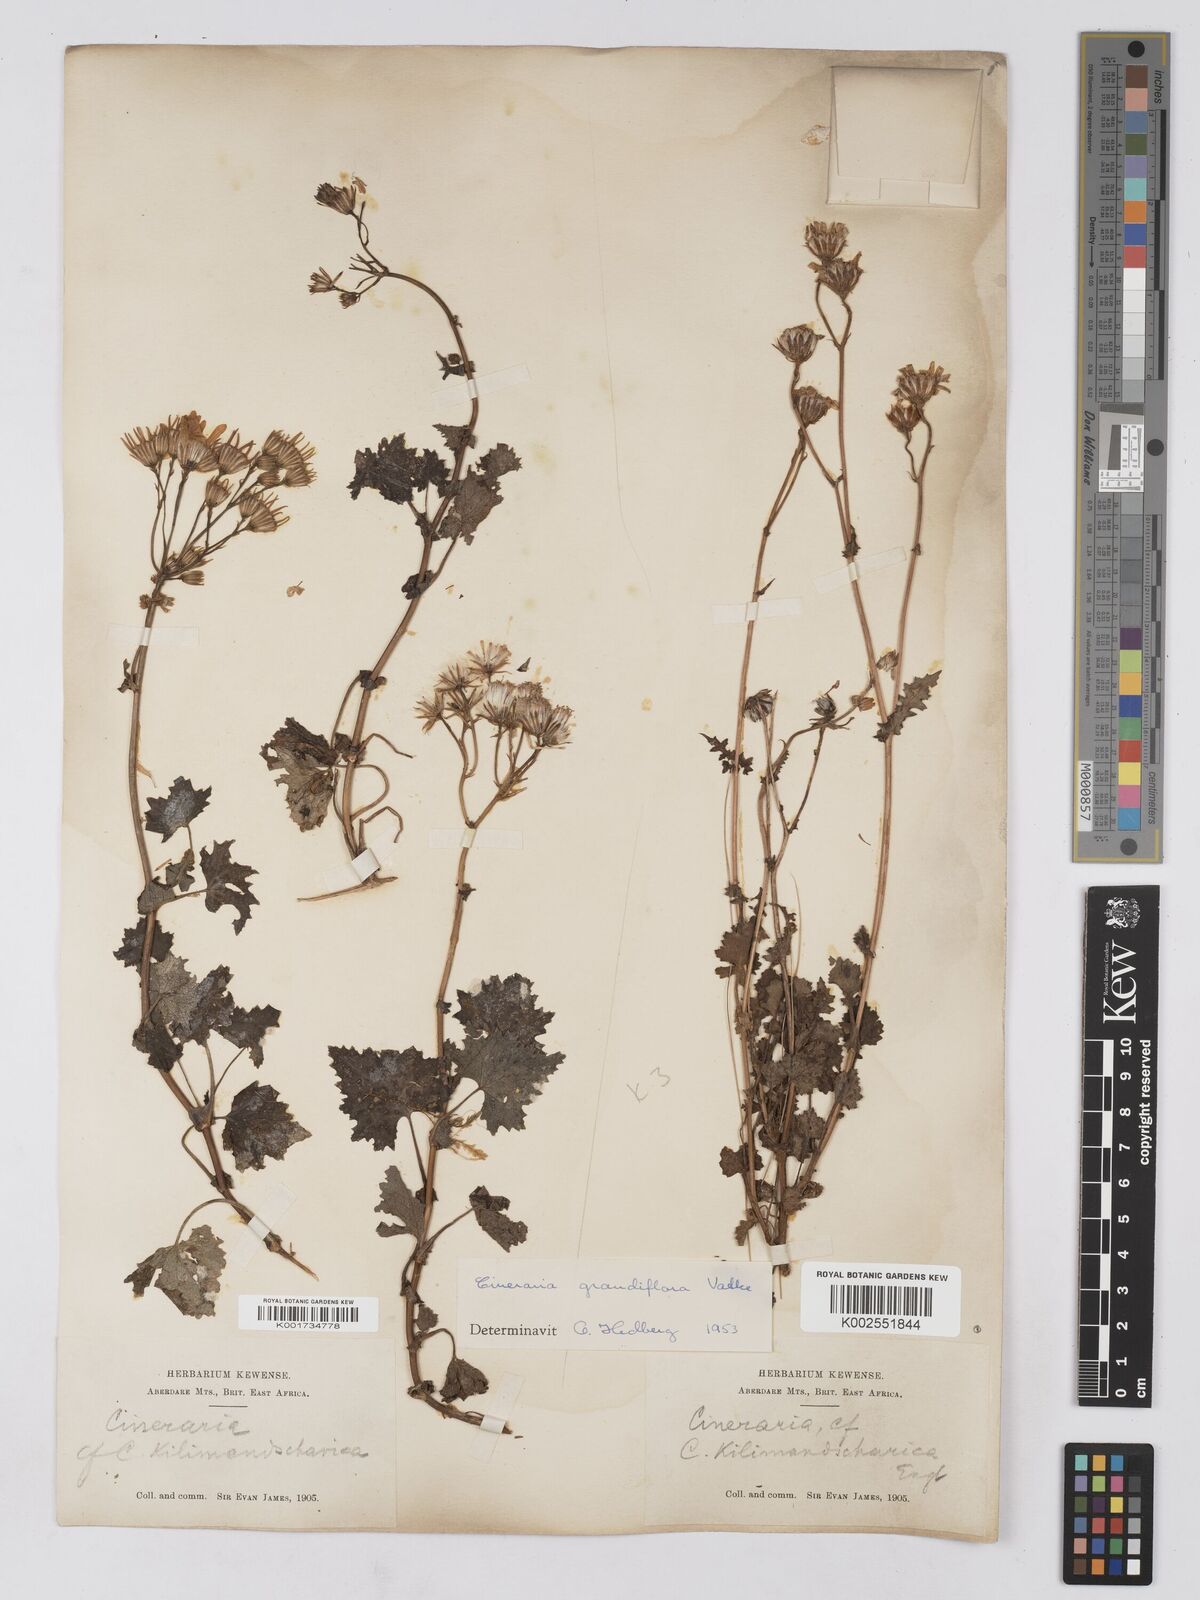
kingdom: Plantae
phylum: Tracheophyta
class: Magnoliopsida
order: Asterales
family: Asteraceae
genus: Cineraria
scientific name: Cineraria deltoidea
